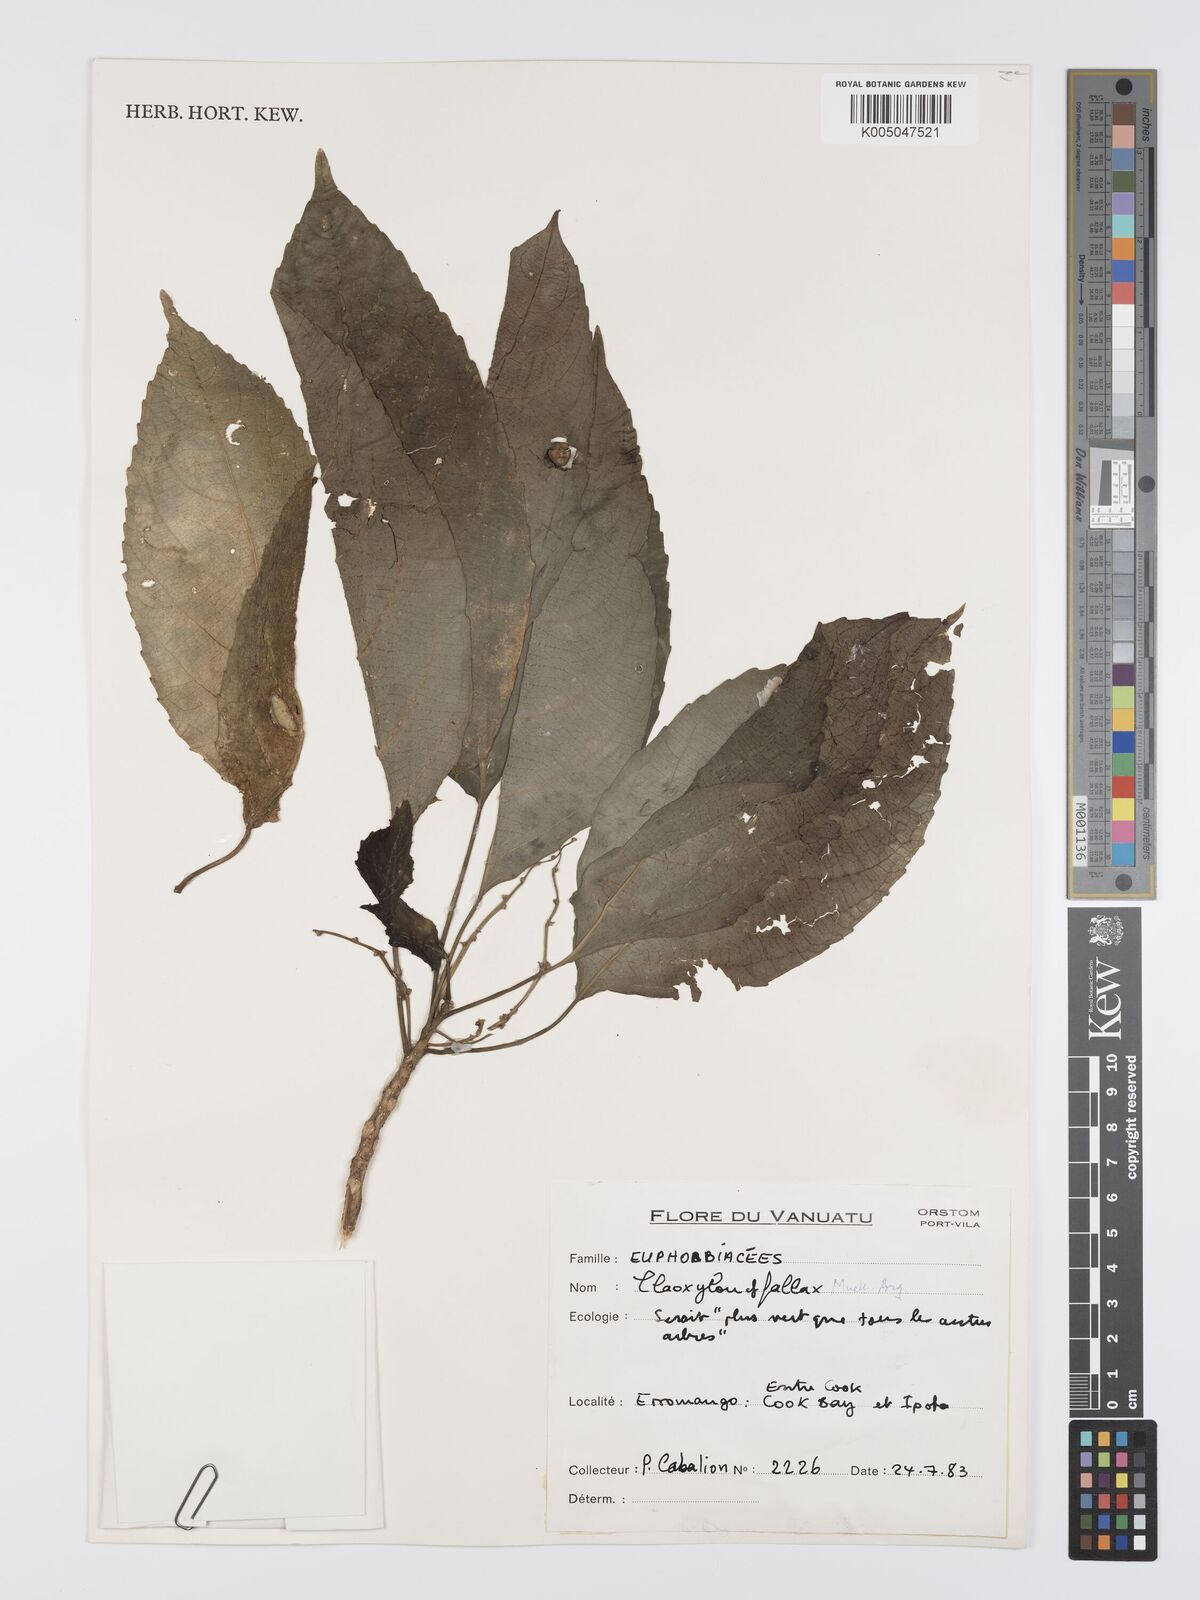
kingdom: Plantae
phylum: Tracheophyta
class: Magnoliopsida
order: Malpighiales
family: Euphorbiaceae
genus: Claoxylon
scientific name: Claoxylon fallax
